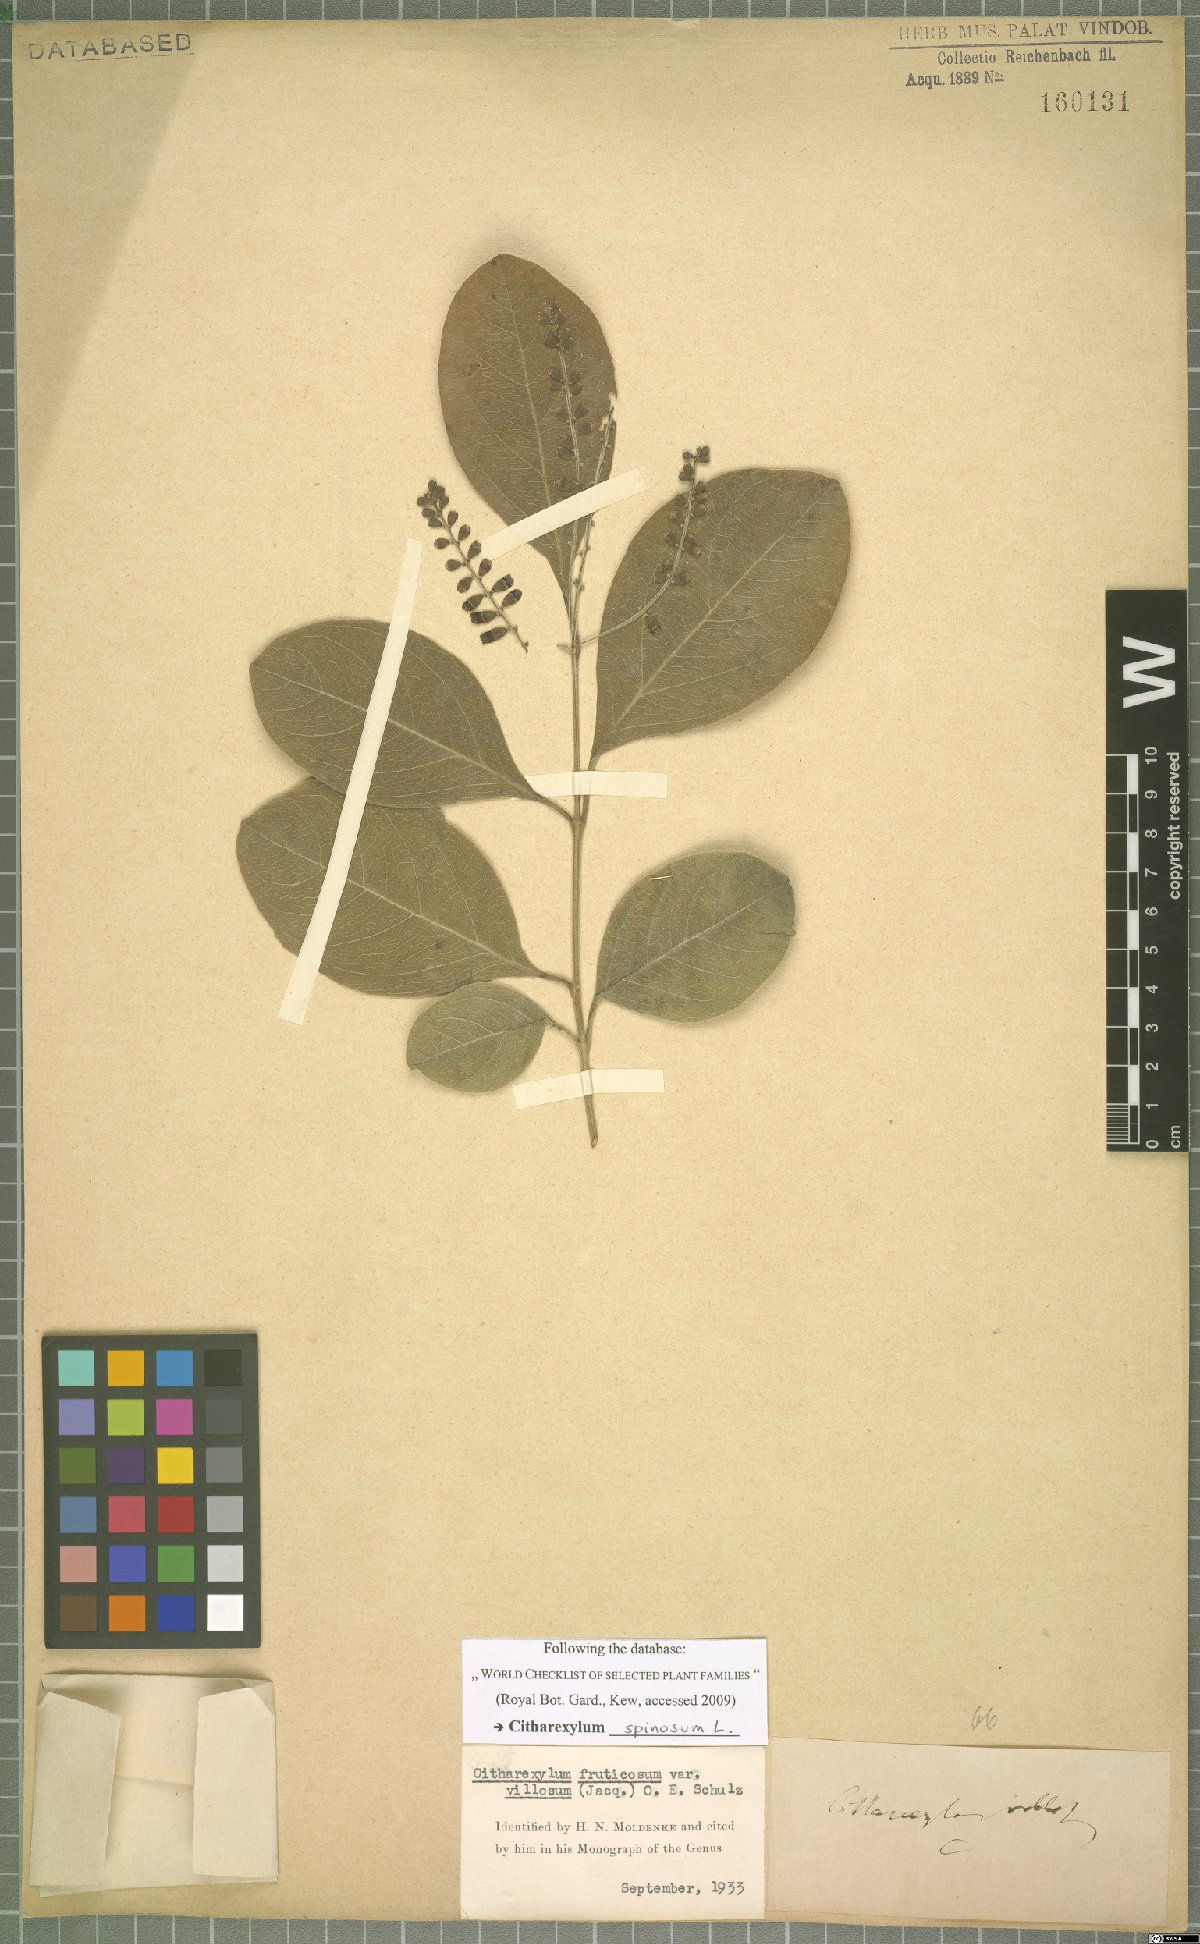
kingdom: Plantae
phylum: Tracheophyta
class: Magnoliopsida
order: Lamiales
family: Verbenaceae
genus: Citharexylum
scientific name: Citharexylum spinosum
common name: Fiddlewood
